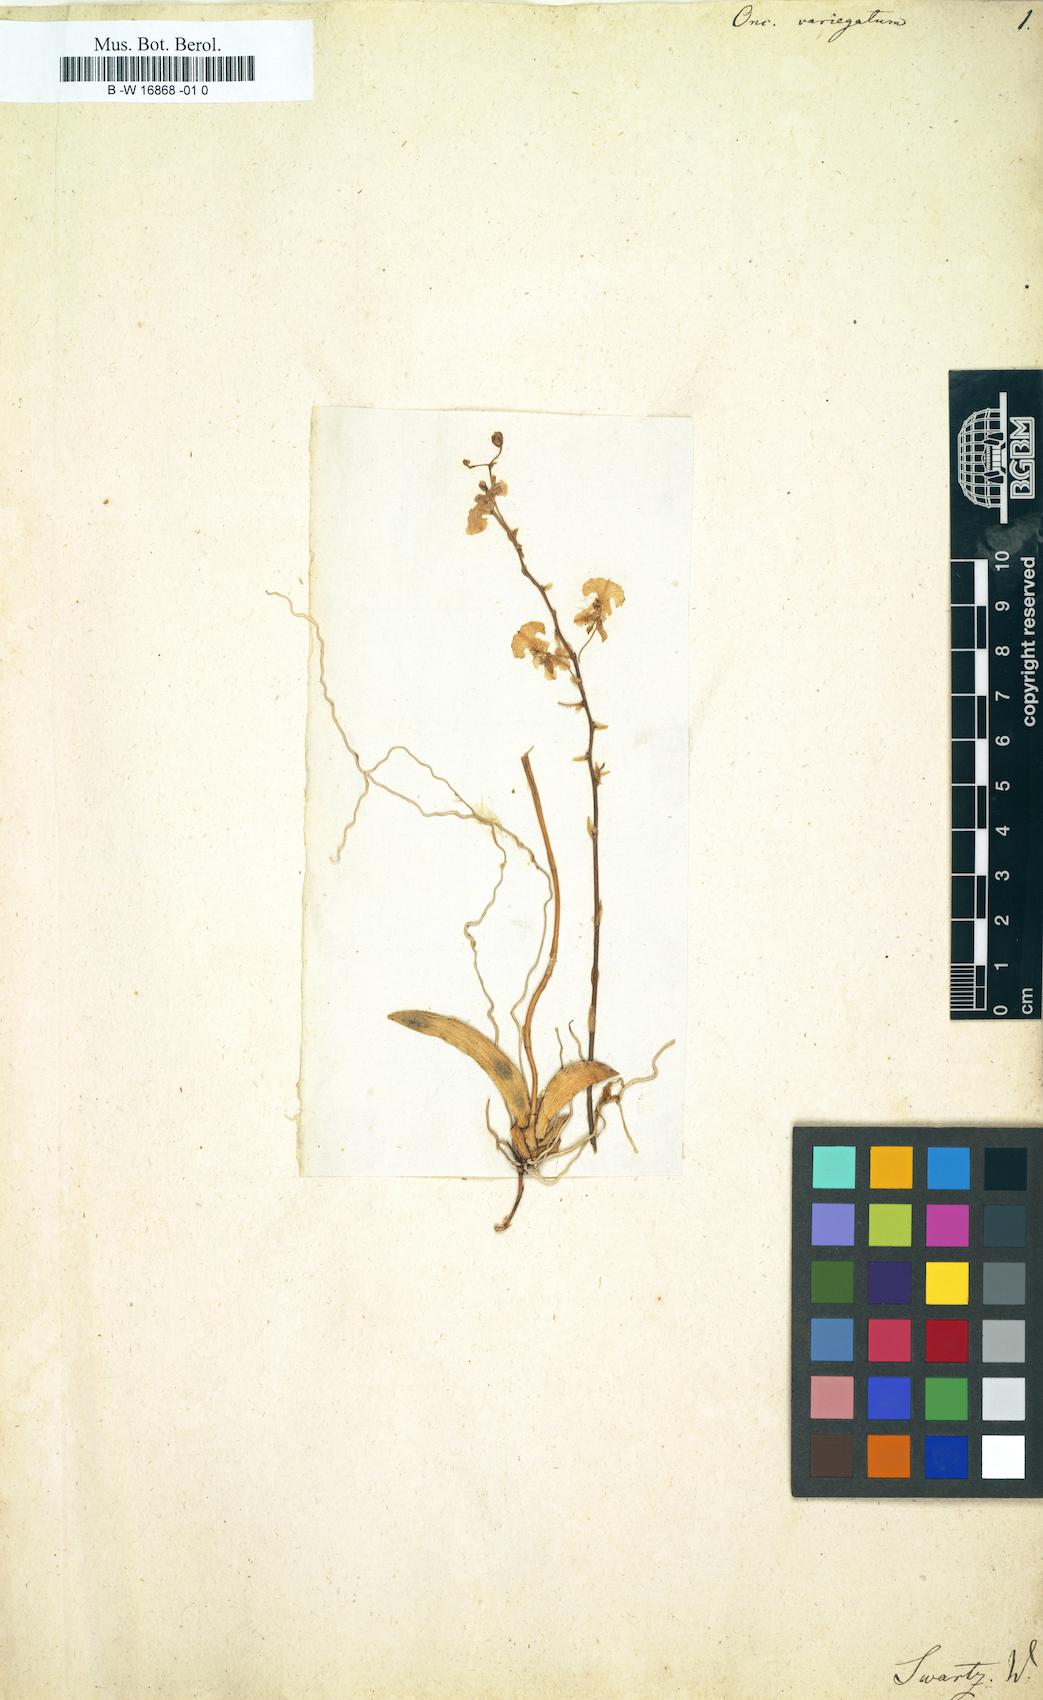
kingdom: Plantae
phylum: Tracheophyta
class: Liliopsida
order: Asparagales
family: Orchidaceae
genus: Oncidium
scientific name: Oncidium variegatum
